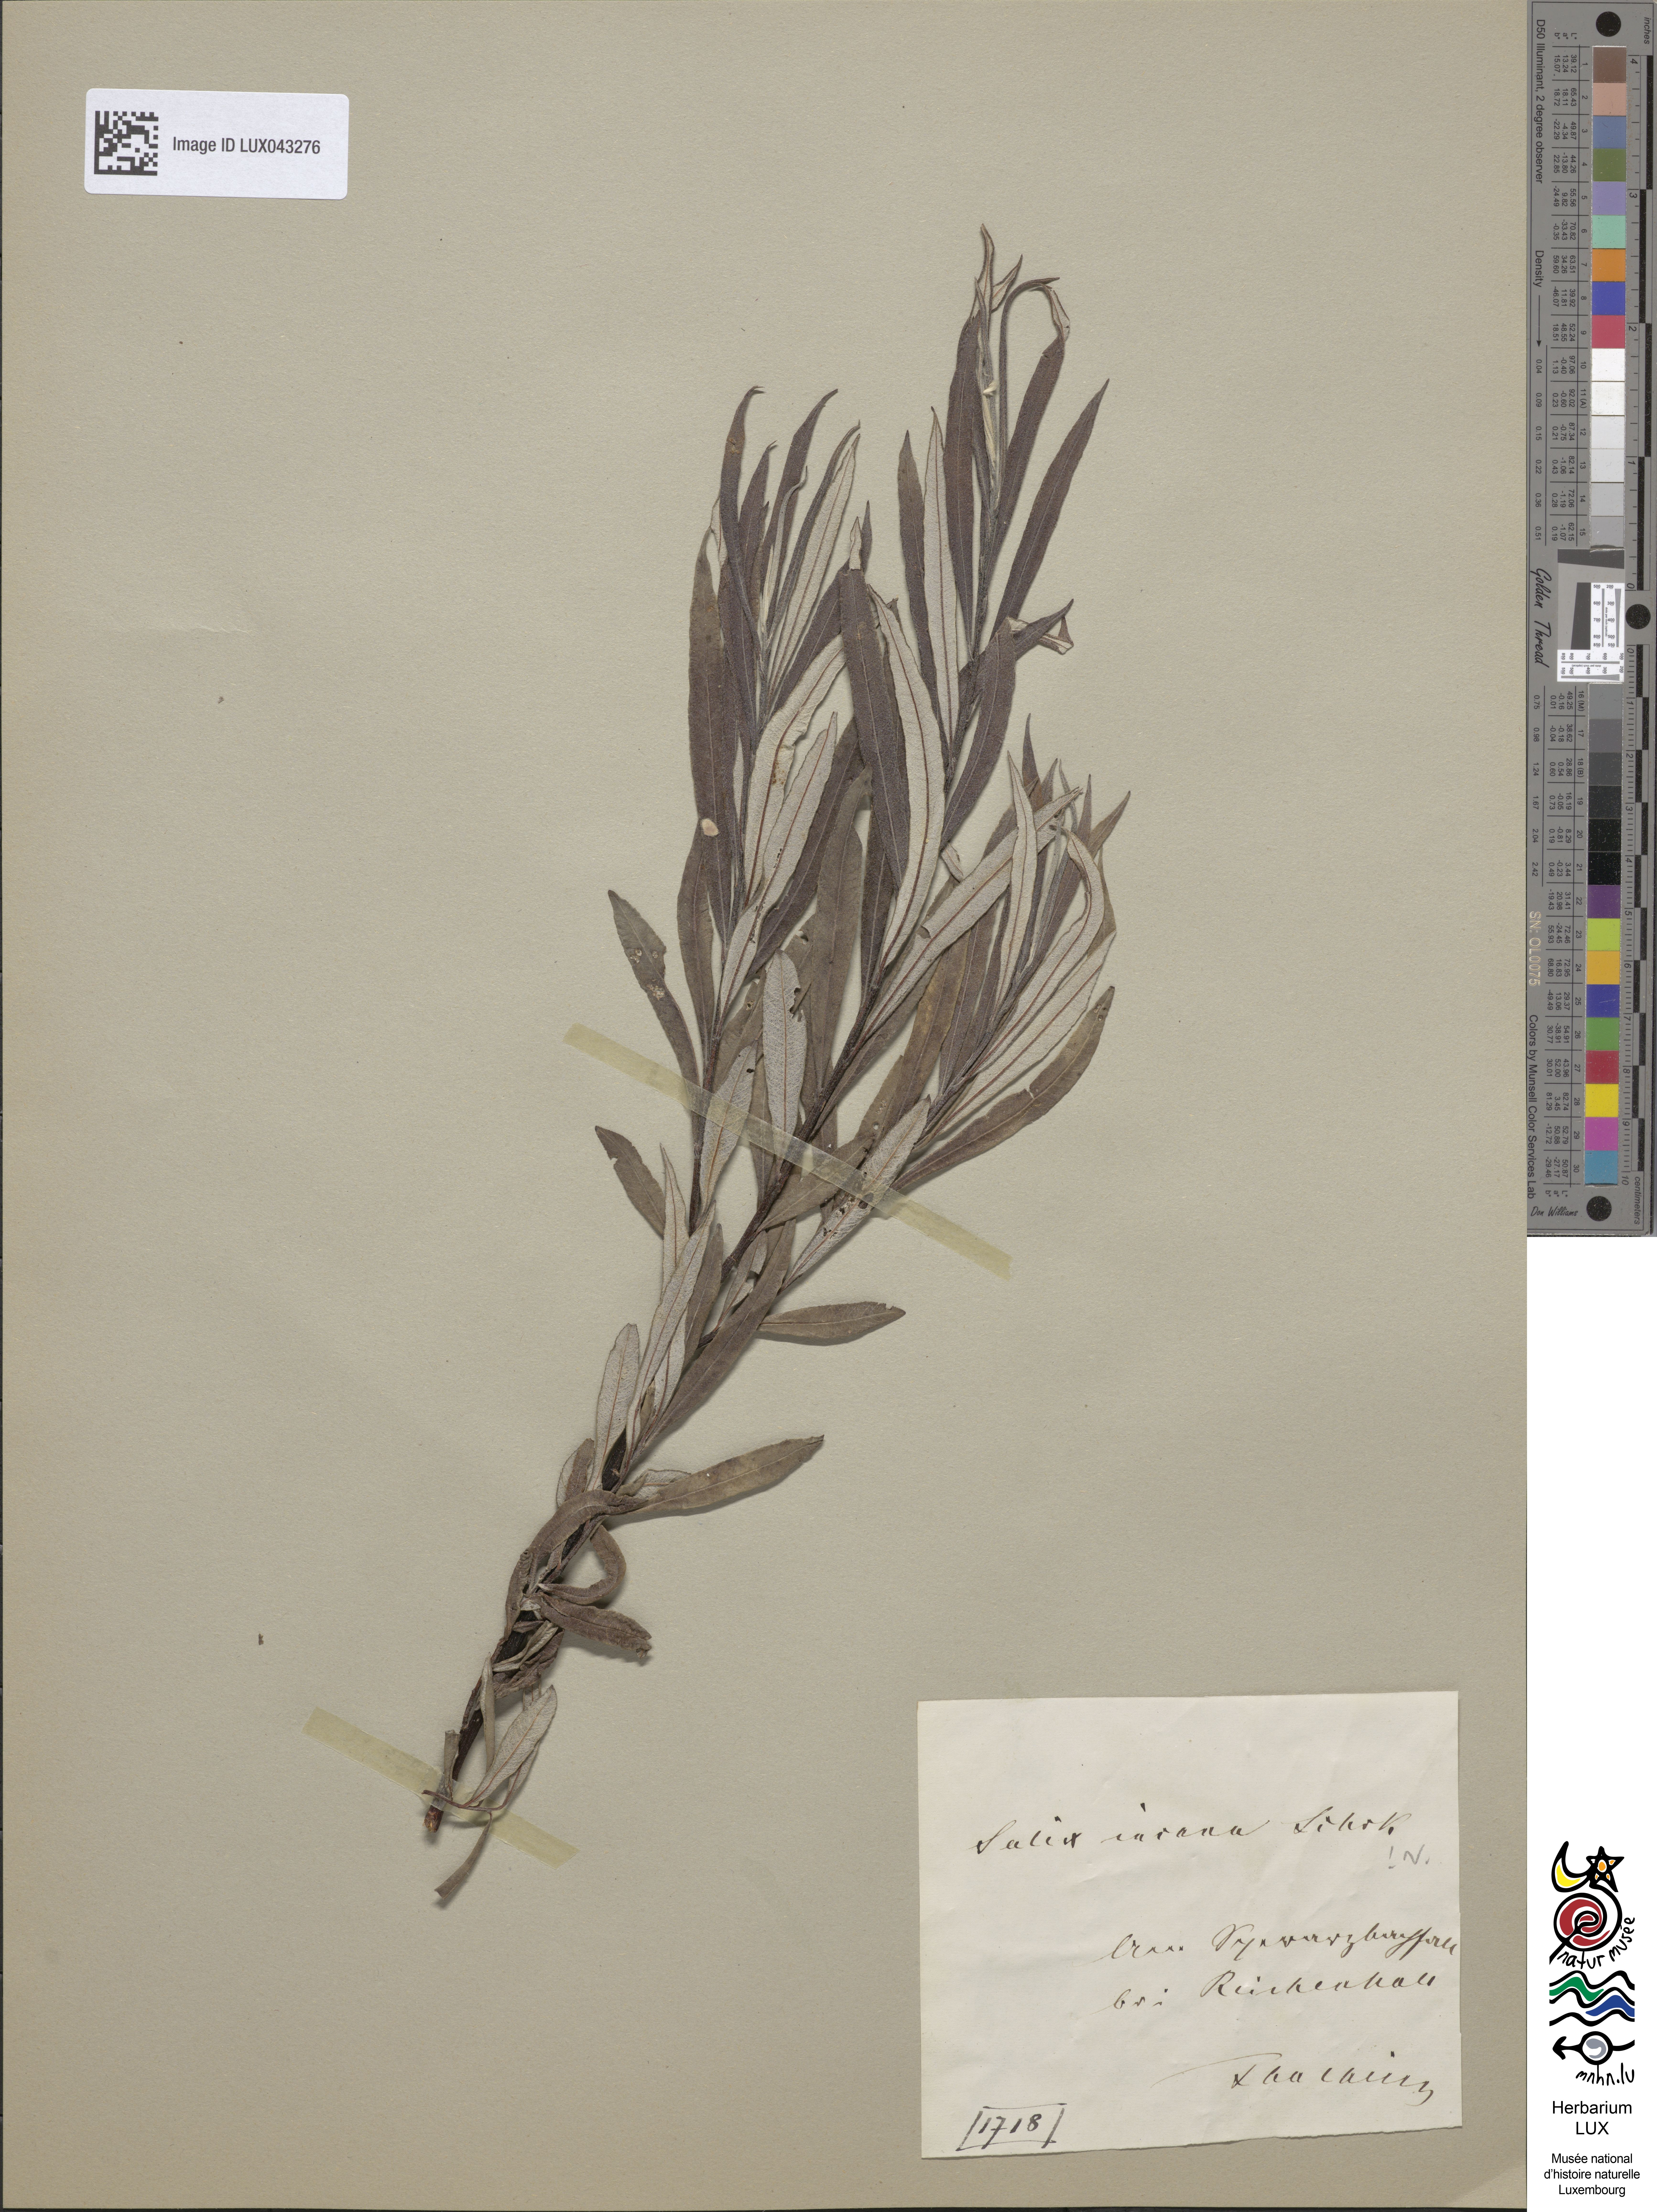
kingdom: Plantae
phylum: Tracheophyta
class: Magnoliopsida
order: Malpighiales
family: Salicaceae
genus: Salix
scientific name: Salix eleagnos
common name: Elaeagnus willow
